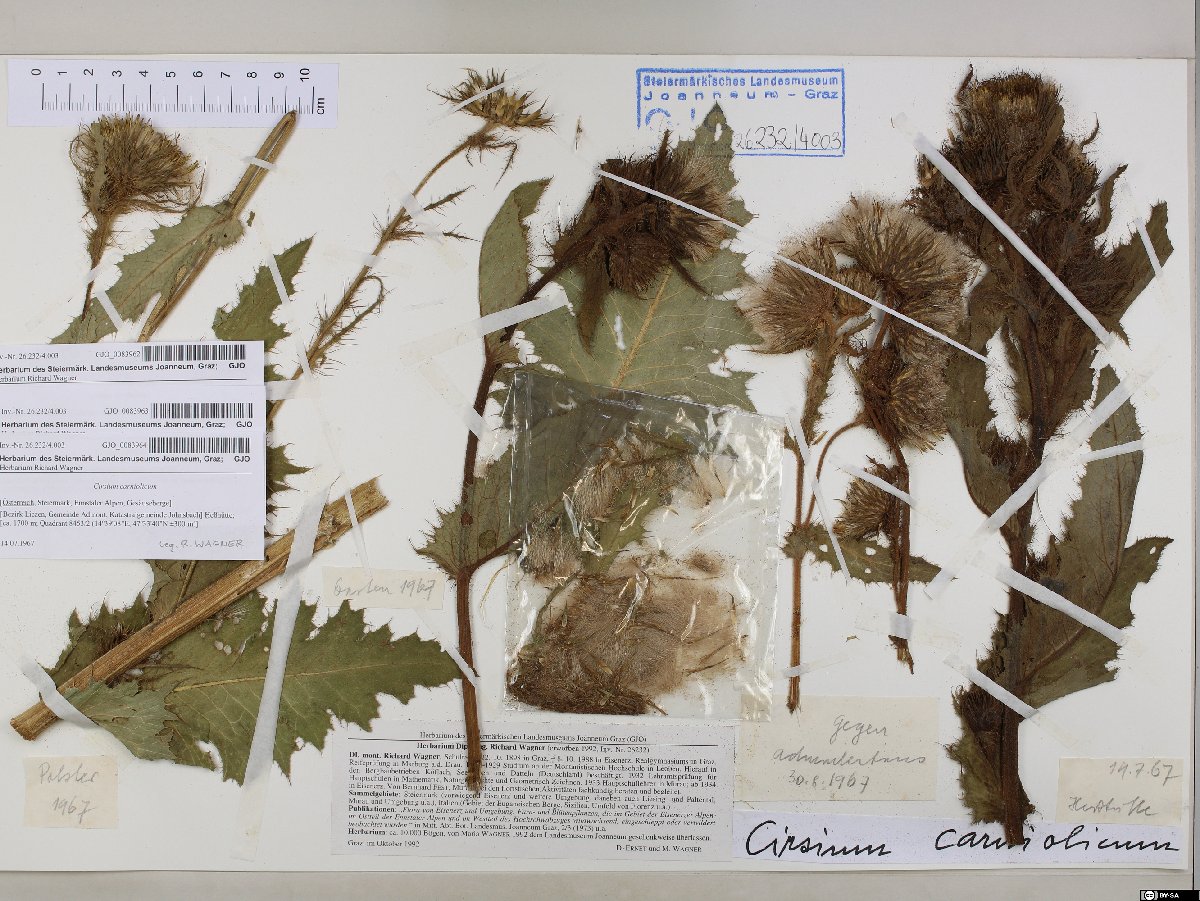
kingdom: Plantae
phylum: Tracheophyta
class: Magnoliopsida
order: Asterales
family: Asteraceae
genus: Cirsium
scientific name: Cirsium carniolicum
